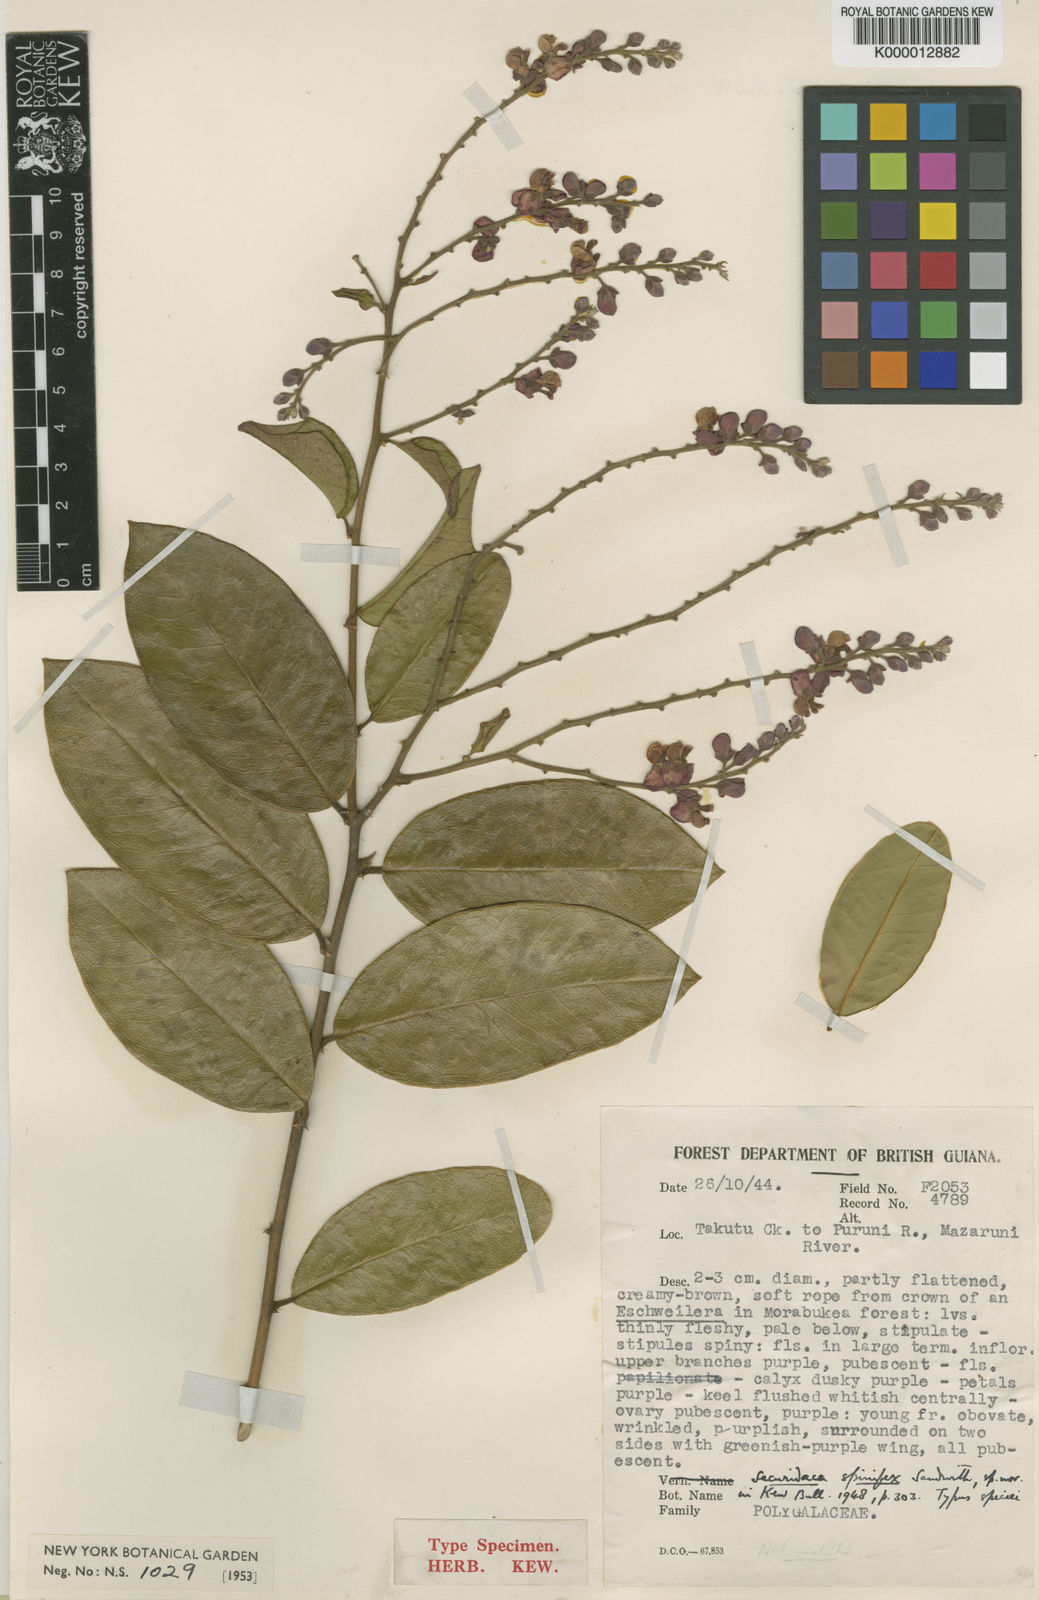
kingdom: Plantae
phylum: Tracheophyta
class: Magnoliopsida
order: Fabales
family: Polygalaceae
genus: Securidaca
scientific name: Securidaca spinifex
